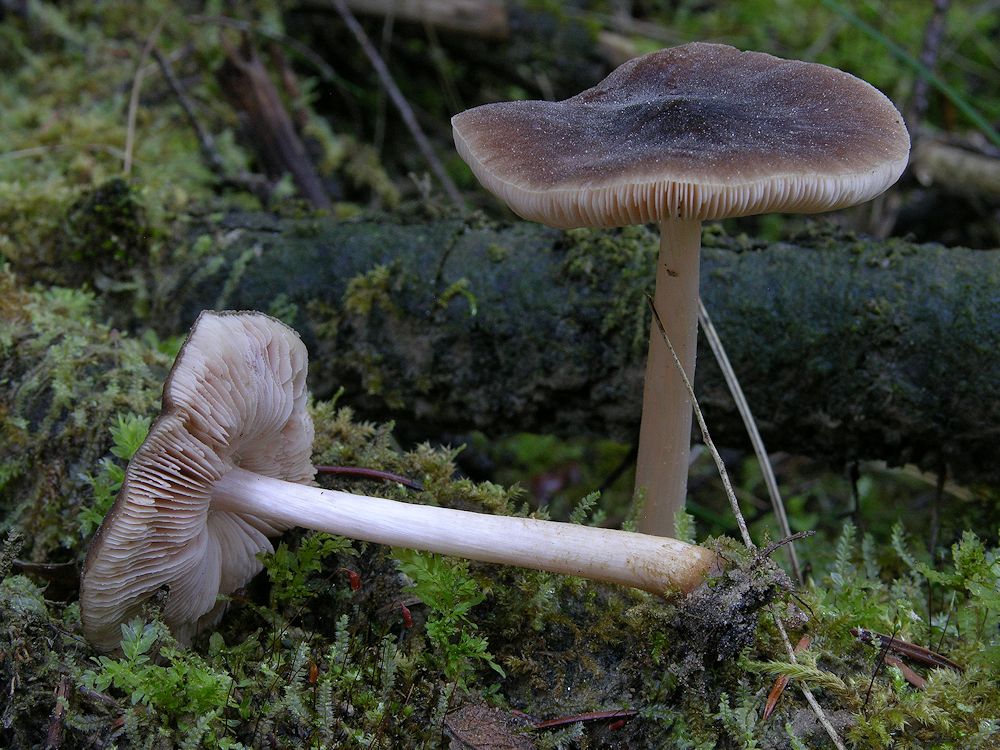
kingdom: Fungi
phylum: Basidiomycota
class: Agaricomycetes
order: Agaricales
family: Pluteaceae
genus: Pluteus
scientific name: Pluteus roseipes
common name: rosafodet skærmhat
